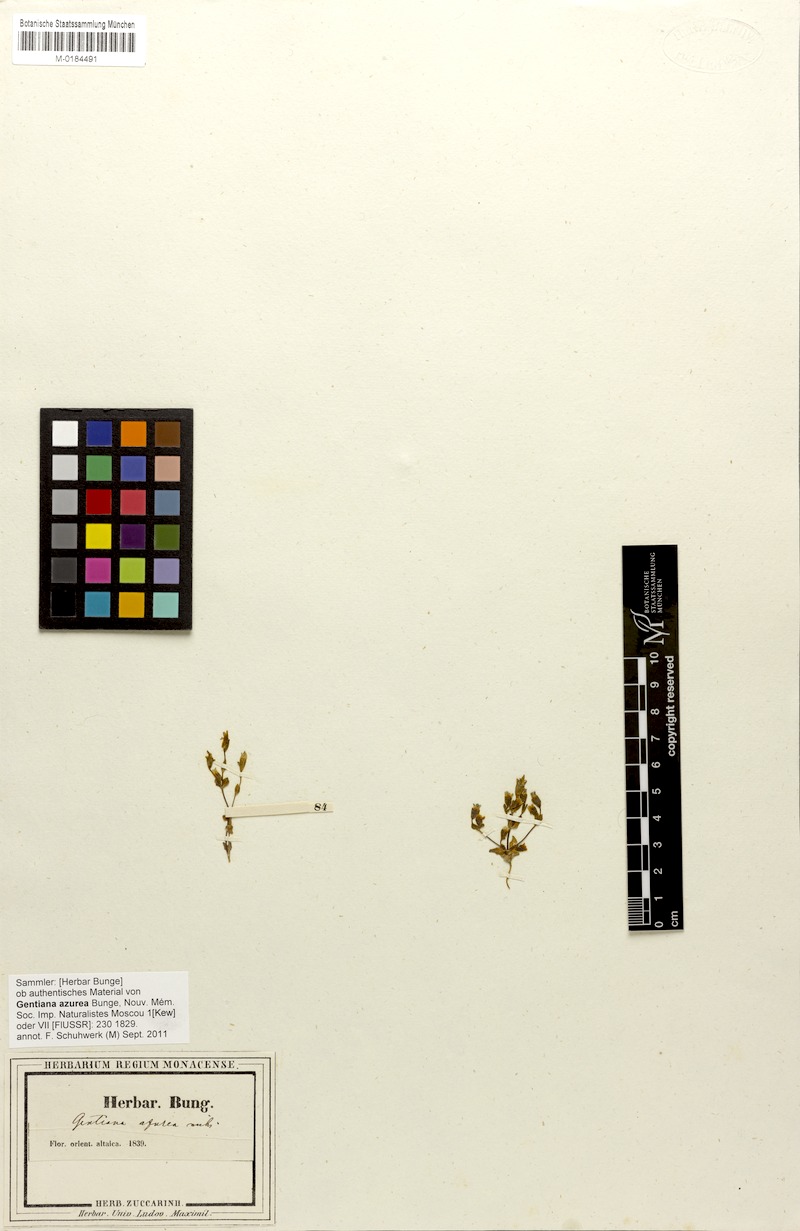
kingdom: Plantae
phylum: Tracheophyta
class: Magnoliopsida
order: Gentianales
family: Gentianaceae
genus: Gentianella
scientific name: Gentianella azurea
